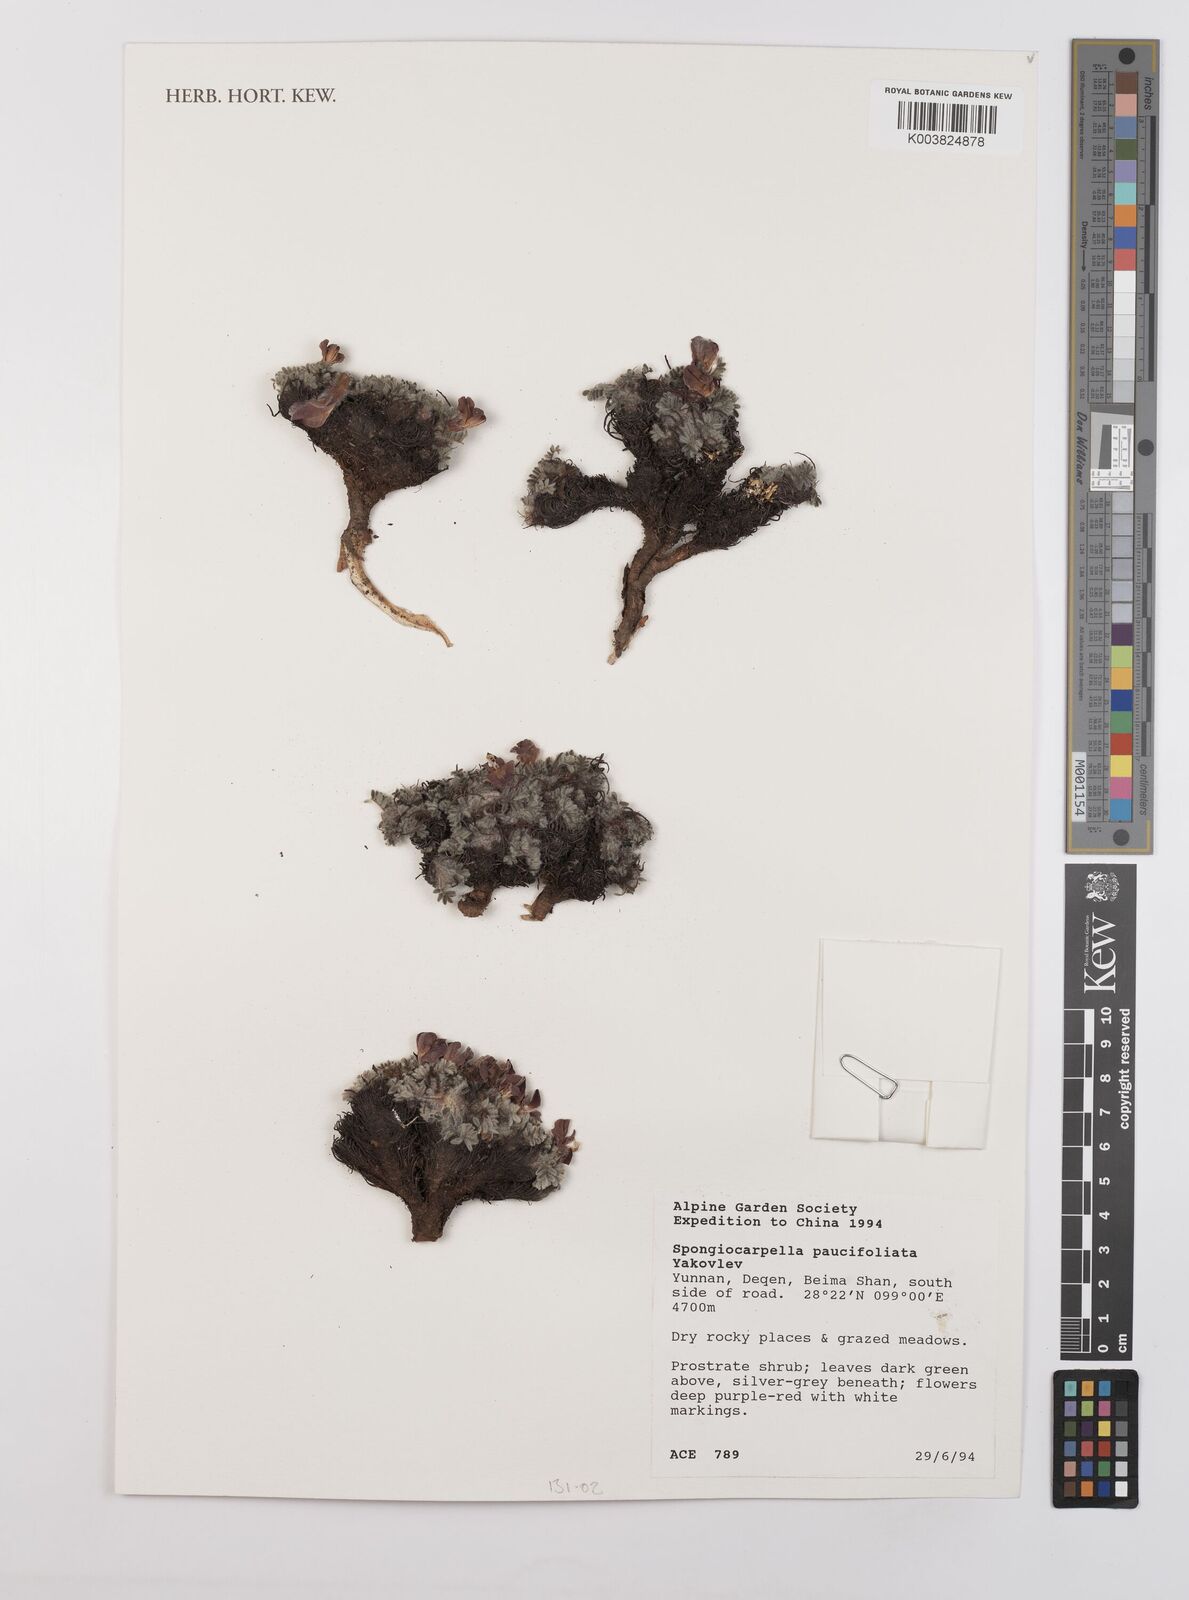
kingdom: Plantae
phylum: Tracheophyta
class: Magnoliopsida
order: Fabales
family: Fabaceae
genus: Chesneya
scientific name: Chesneya
